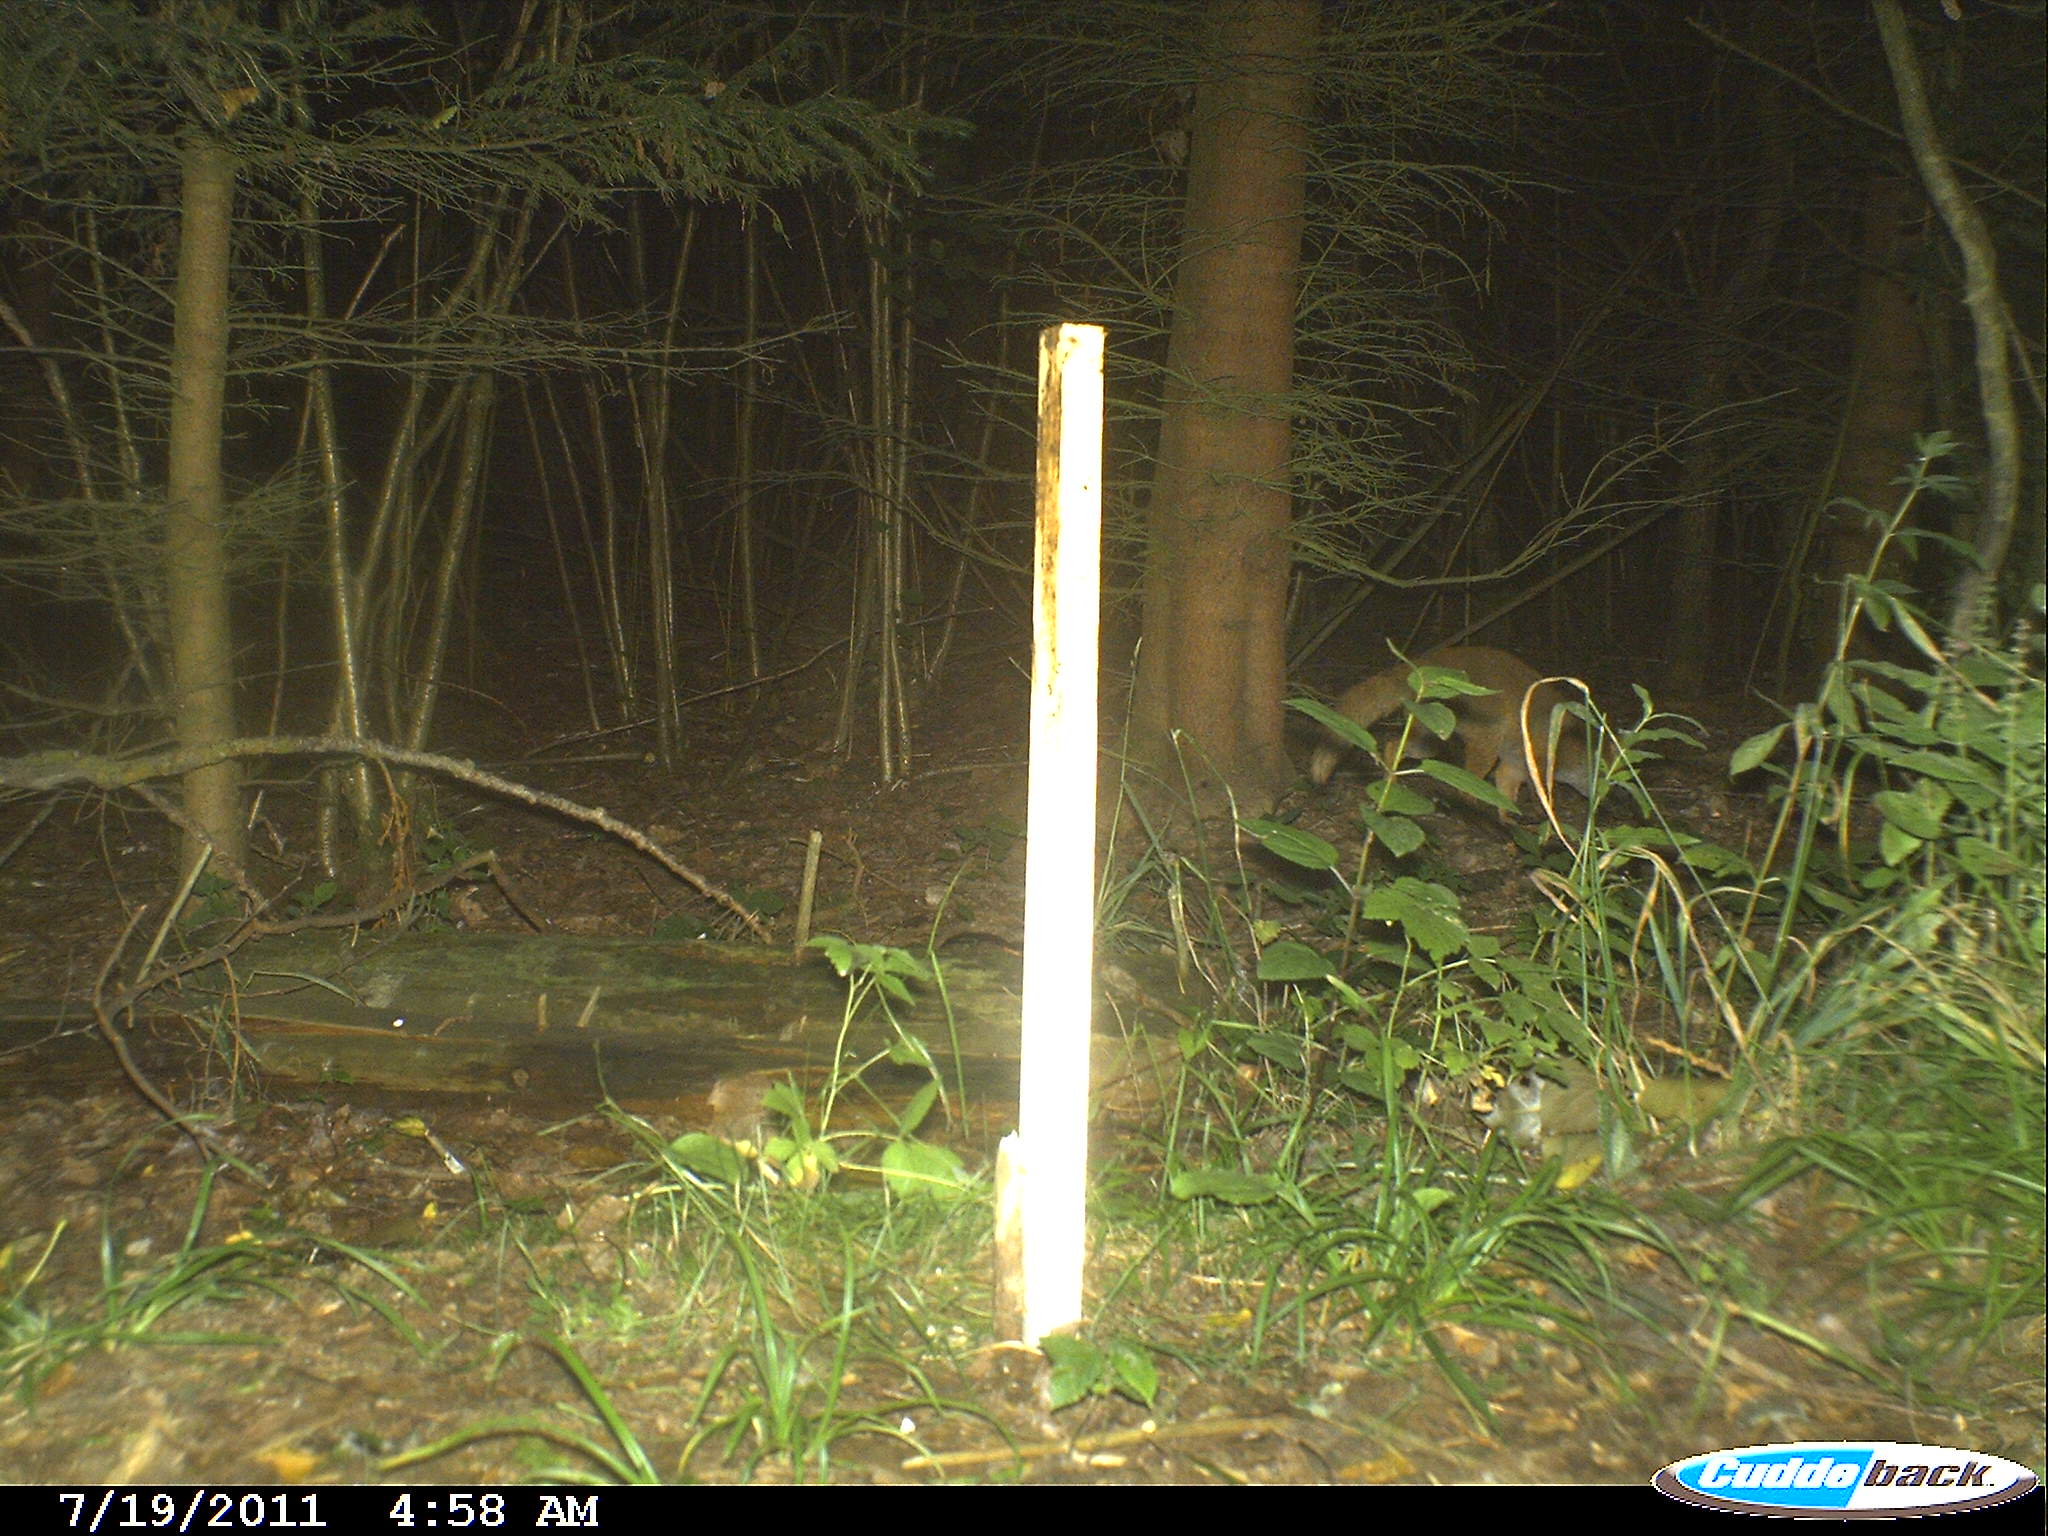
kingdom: Animalia
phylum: Chordata
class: Mammalia
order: Carnivora
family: Canidae
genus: Vulpes
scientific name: Vulpes vulpes
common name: Red fox
